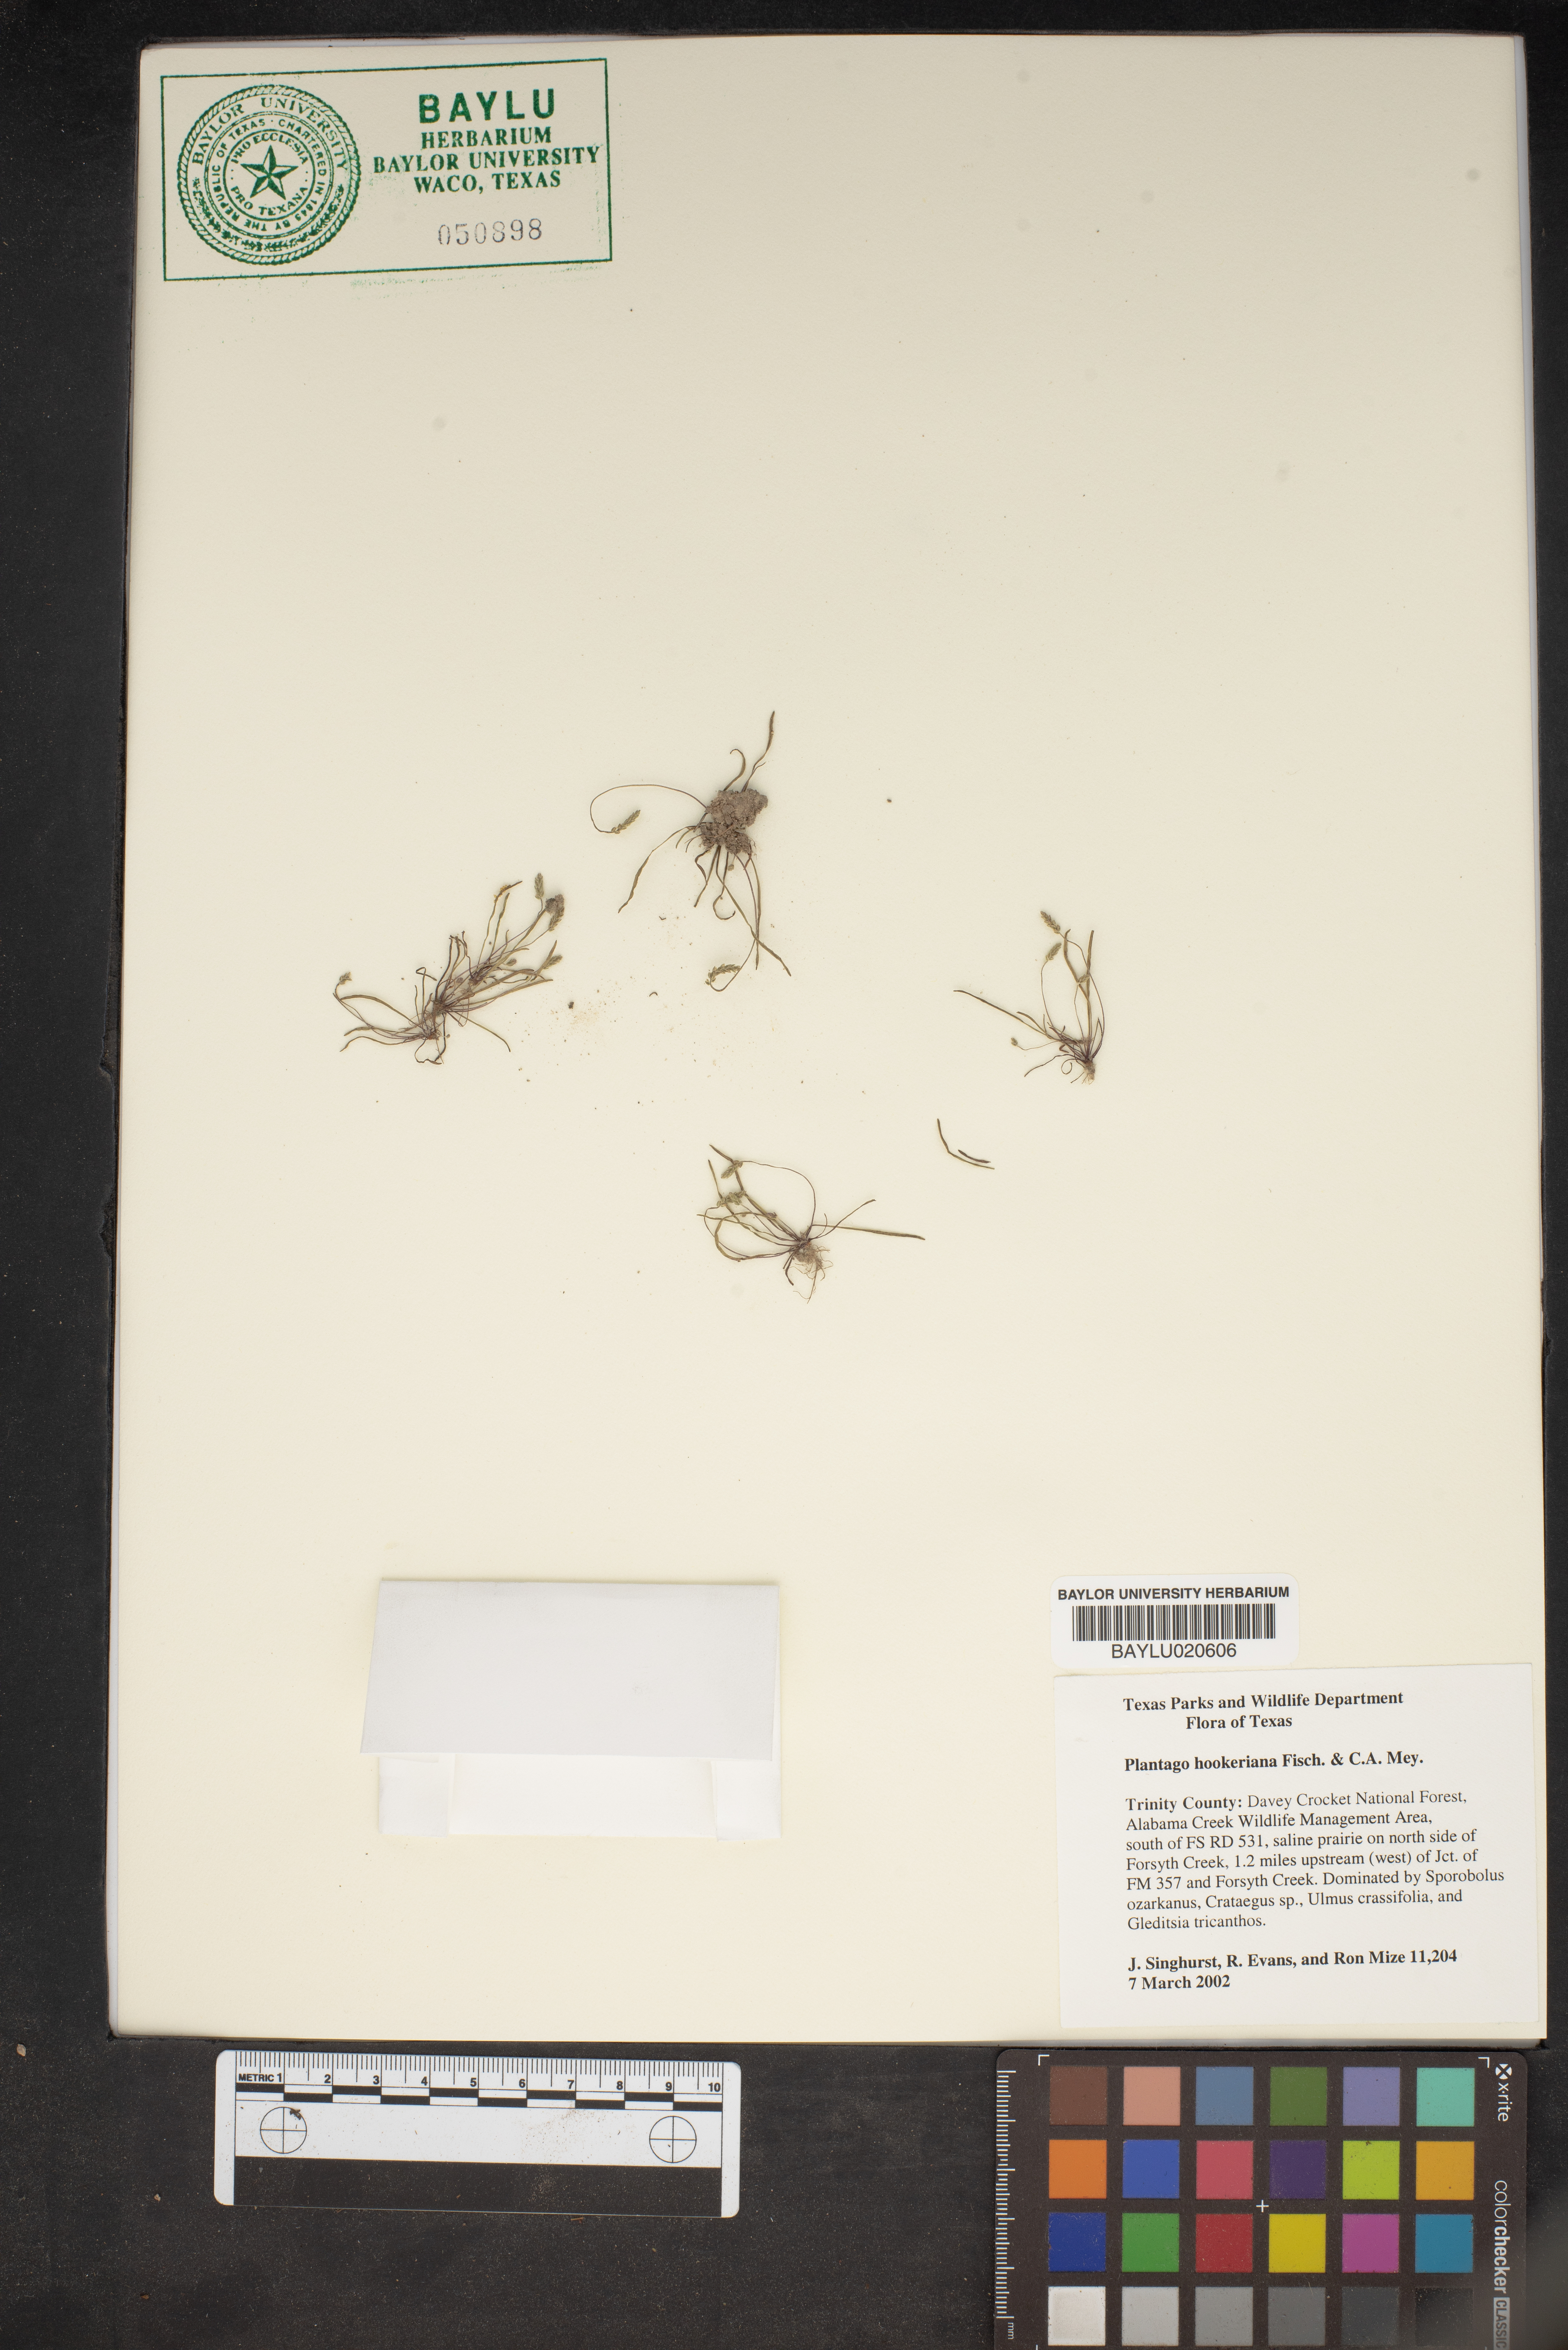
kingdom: Plantae
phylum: Tracheophyta
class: Magnoliopsida
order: Lamiales
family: Plantaginaceae
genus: Plantago
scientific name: Plantago hookeriana
